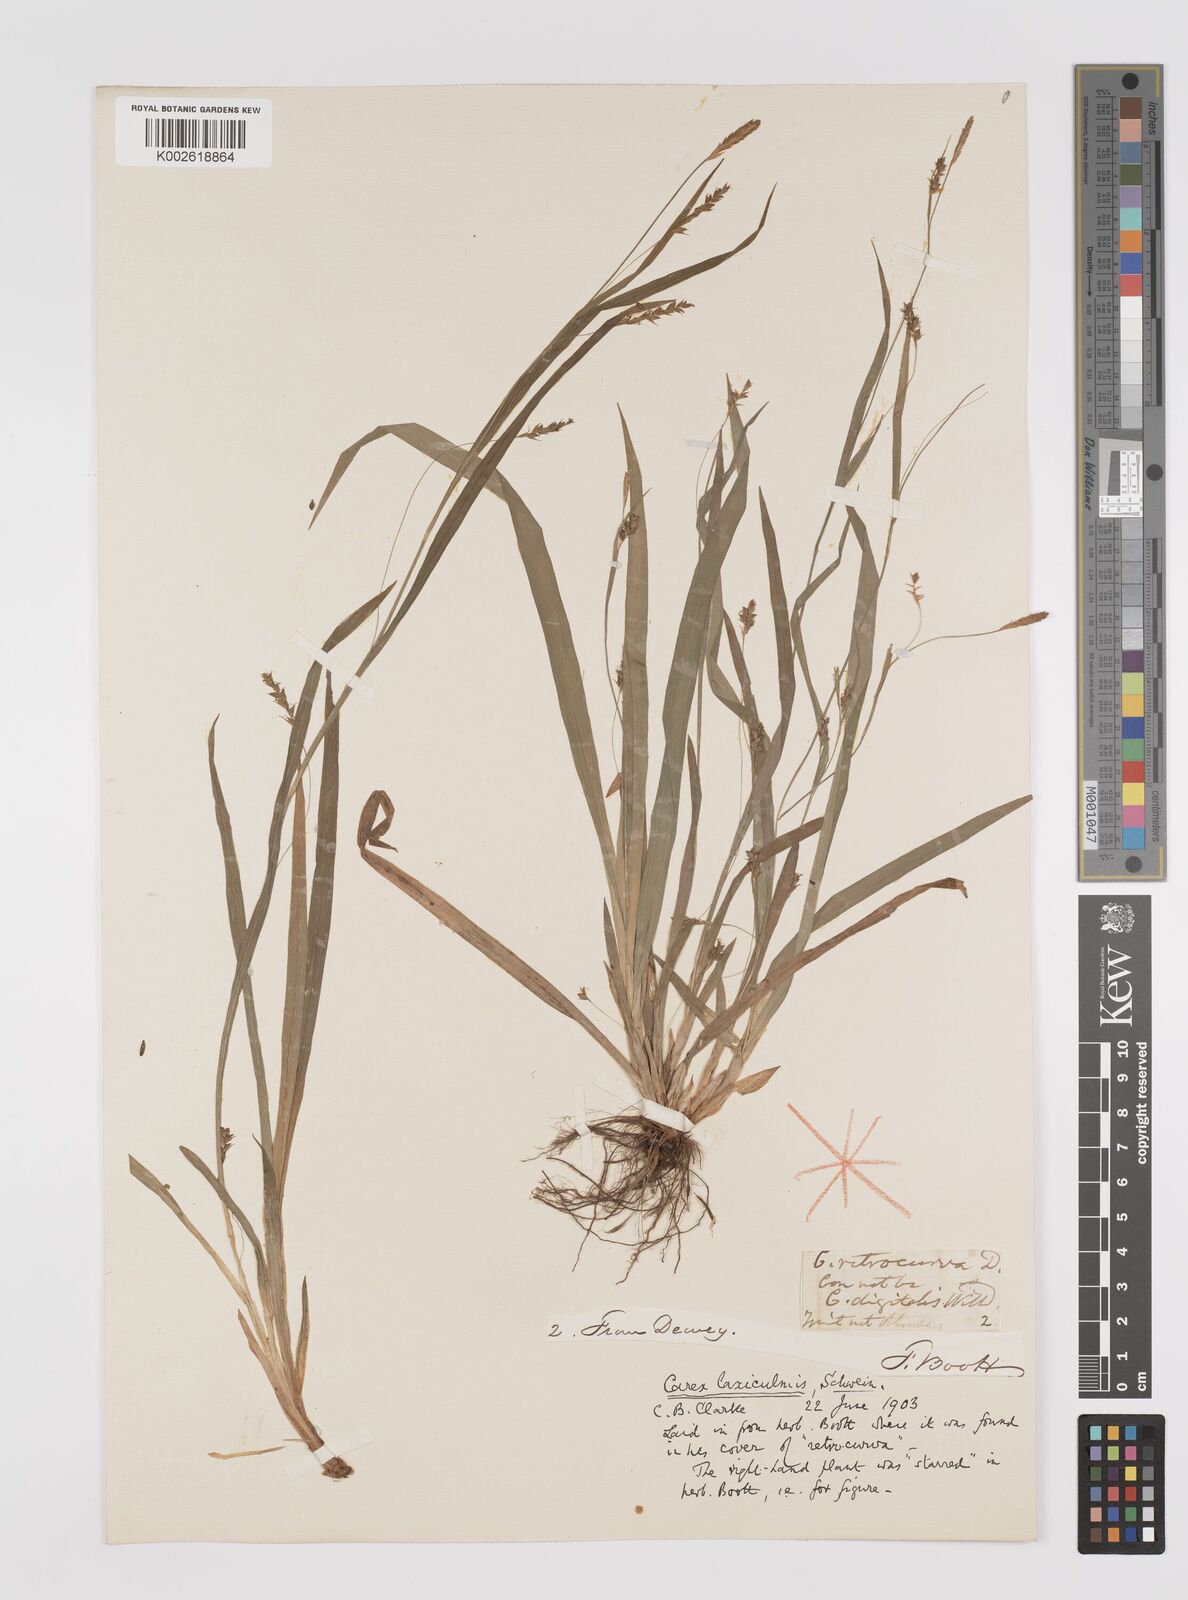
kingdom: Plantae
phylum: Tracheophyta
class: Liliopsida
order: Poales
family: Cyperaceae
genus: Carex
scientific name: Carex laxiculmis
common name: Spreading sedge
